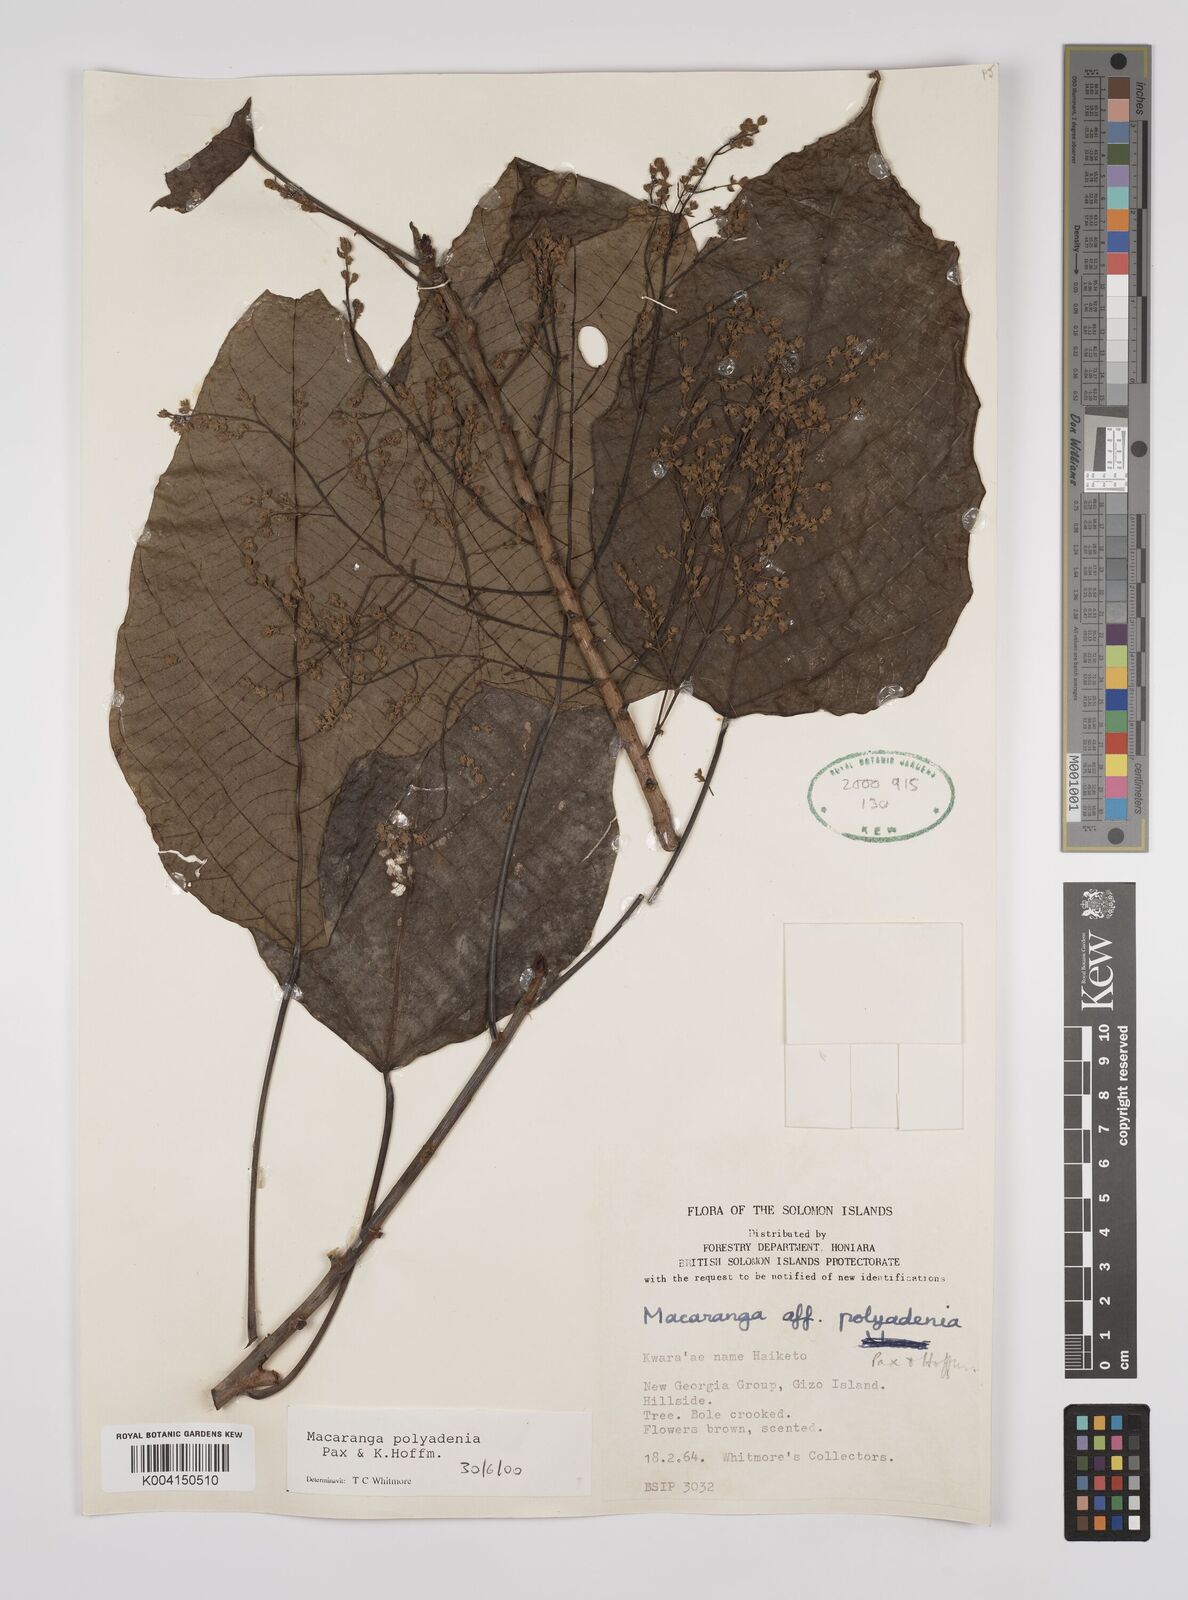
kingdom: Plantae
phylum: Tracheophyta
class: Magnoliopsida
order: Malpighiales
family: Euphorbiaceae
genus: Macaranga
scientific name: Macaranga polyadenia
